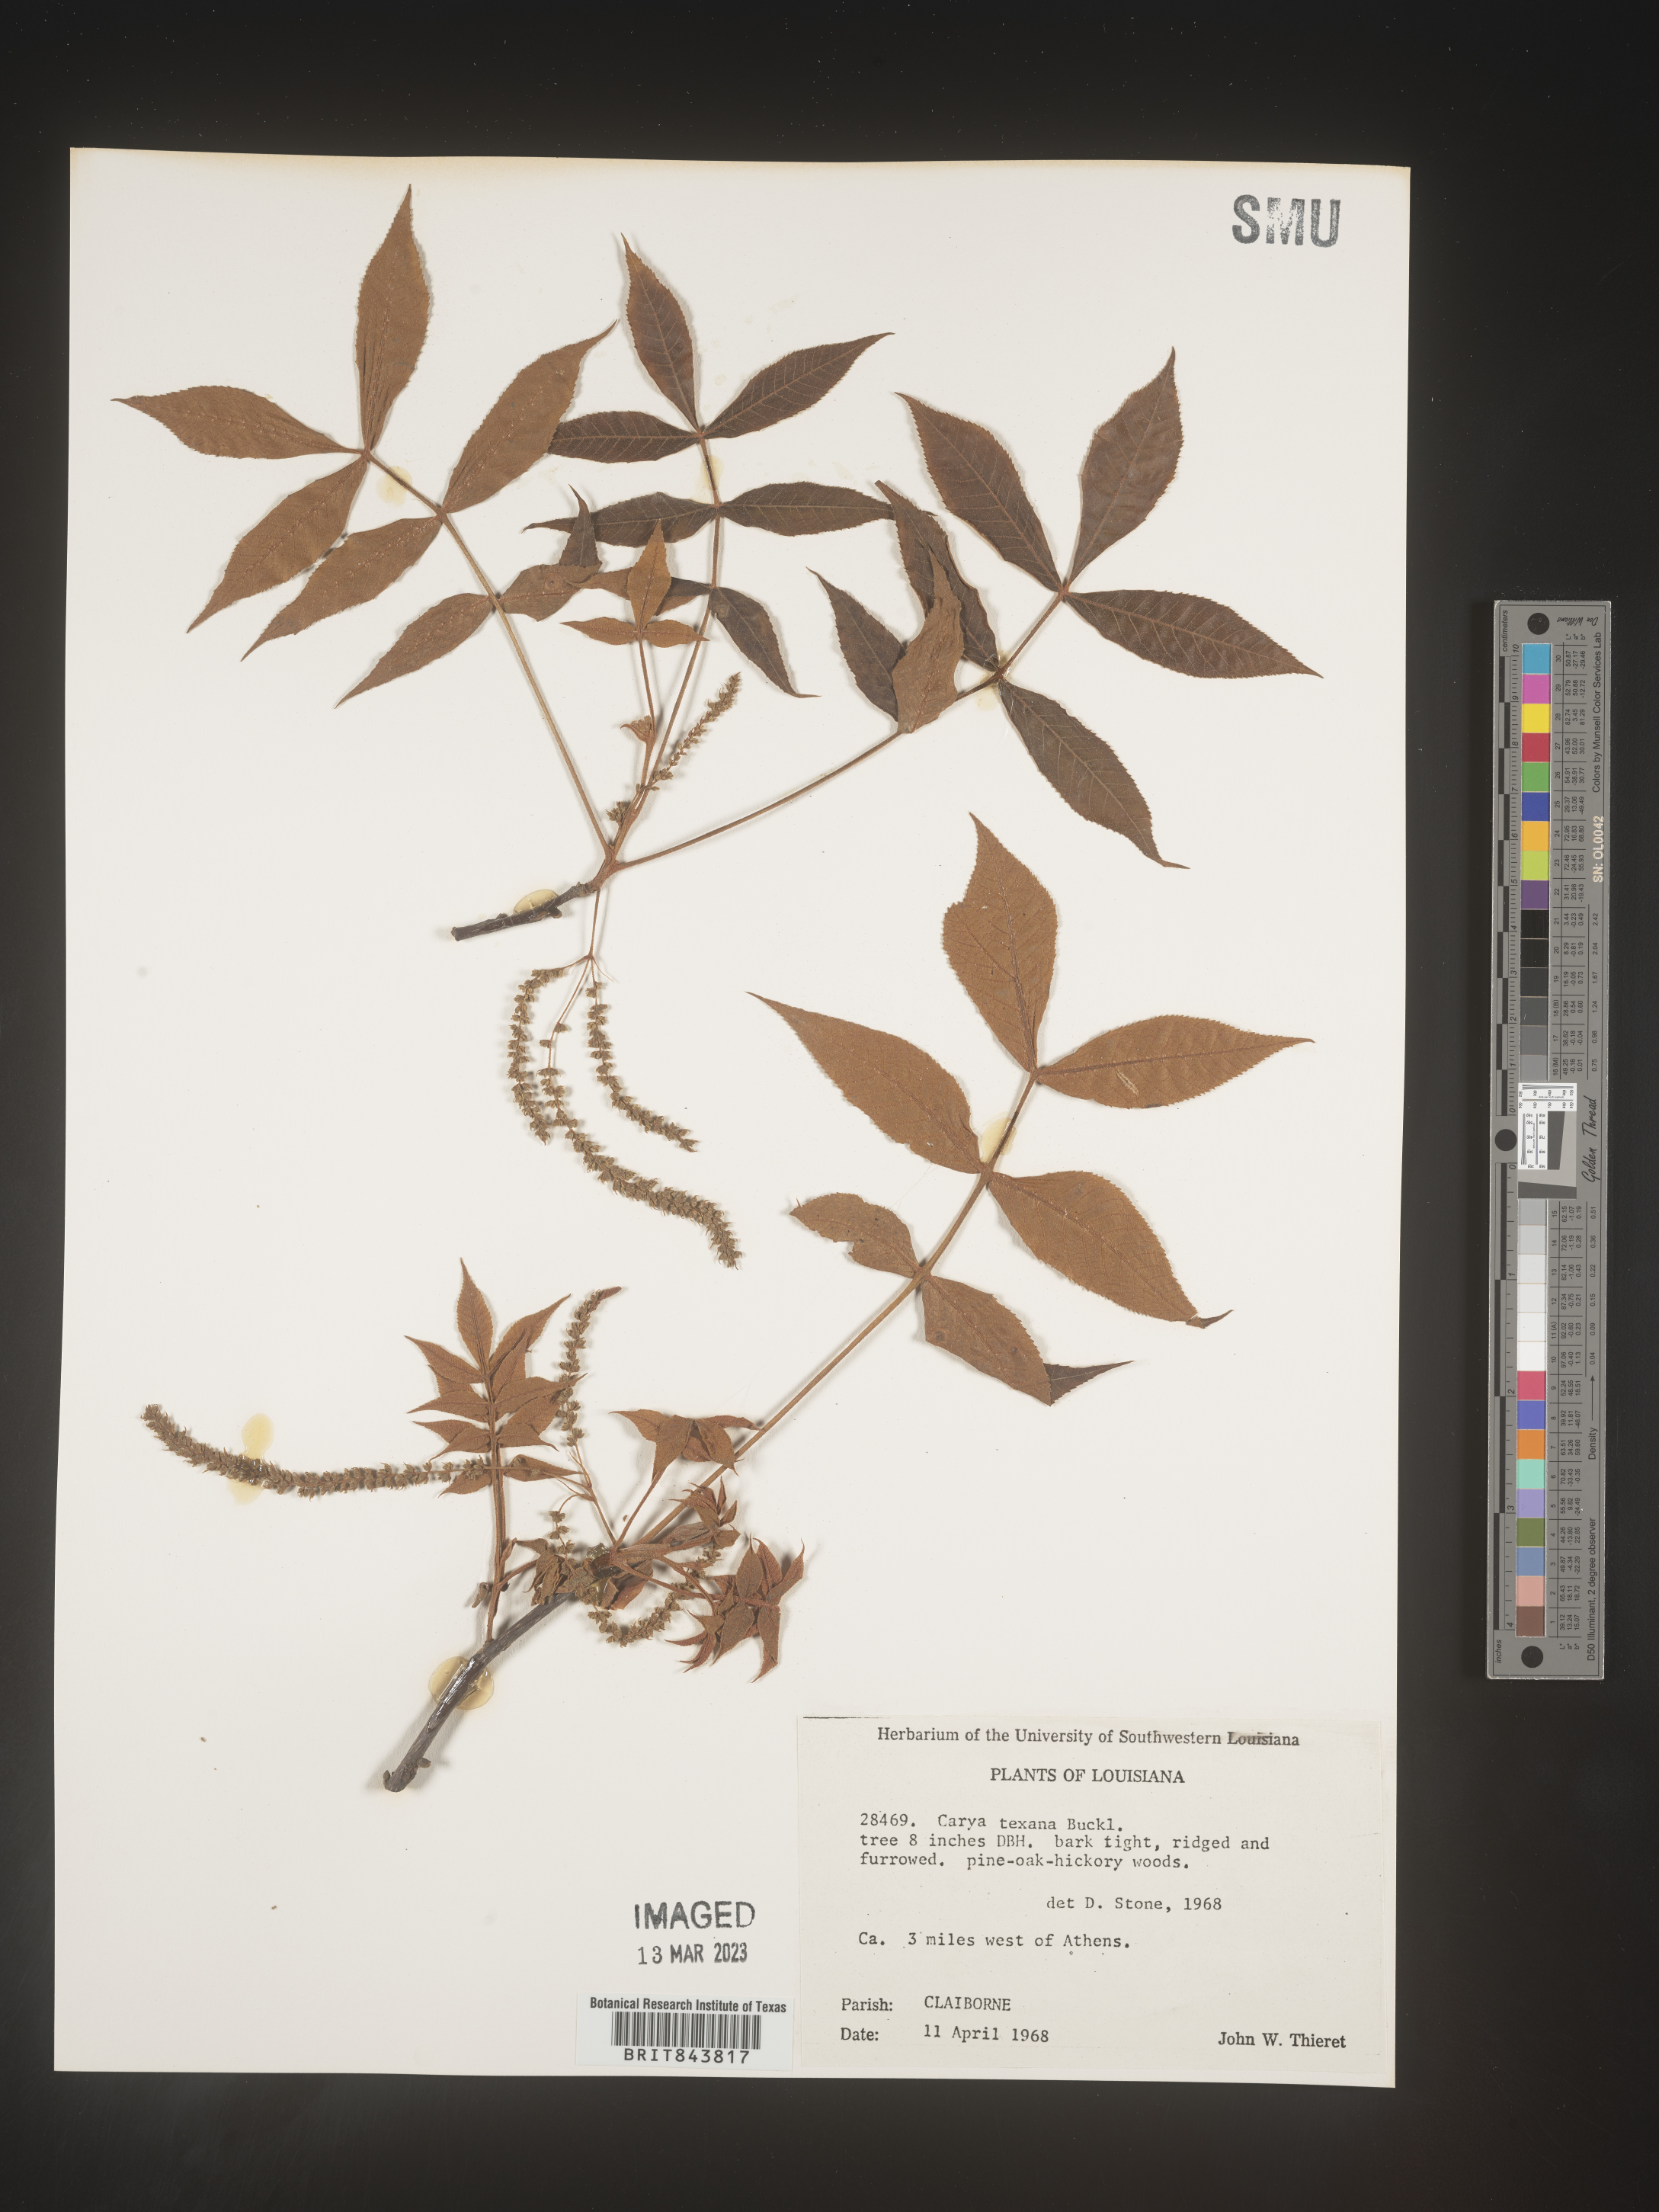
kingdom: Plantae
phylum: Tracheophyta
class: Magnoliopsida
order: Fagales
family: Juglandaceae
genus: Carya
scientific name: Carya texana
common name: Black hickory
